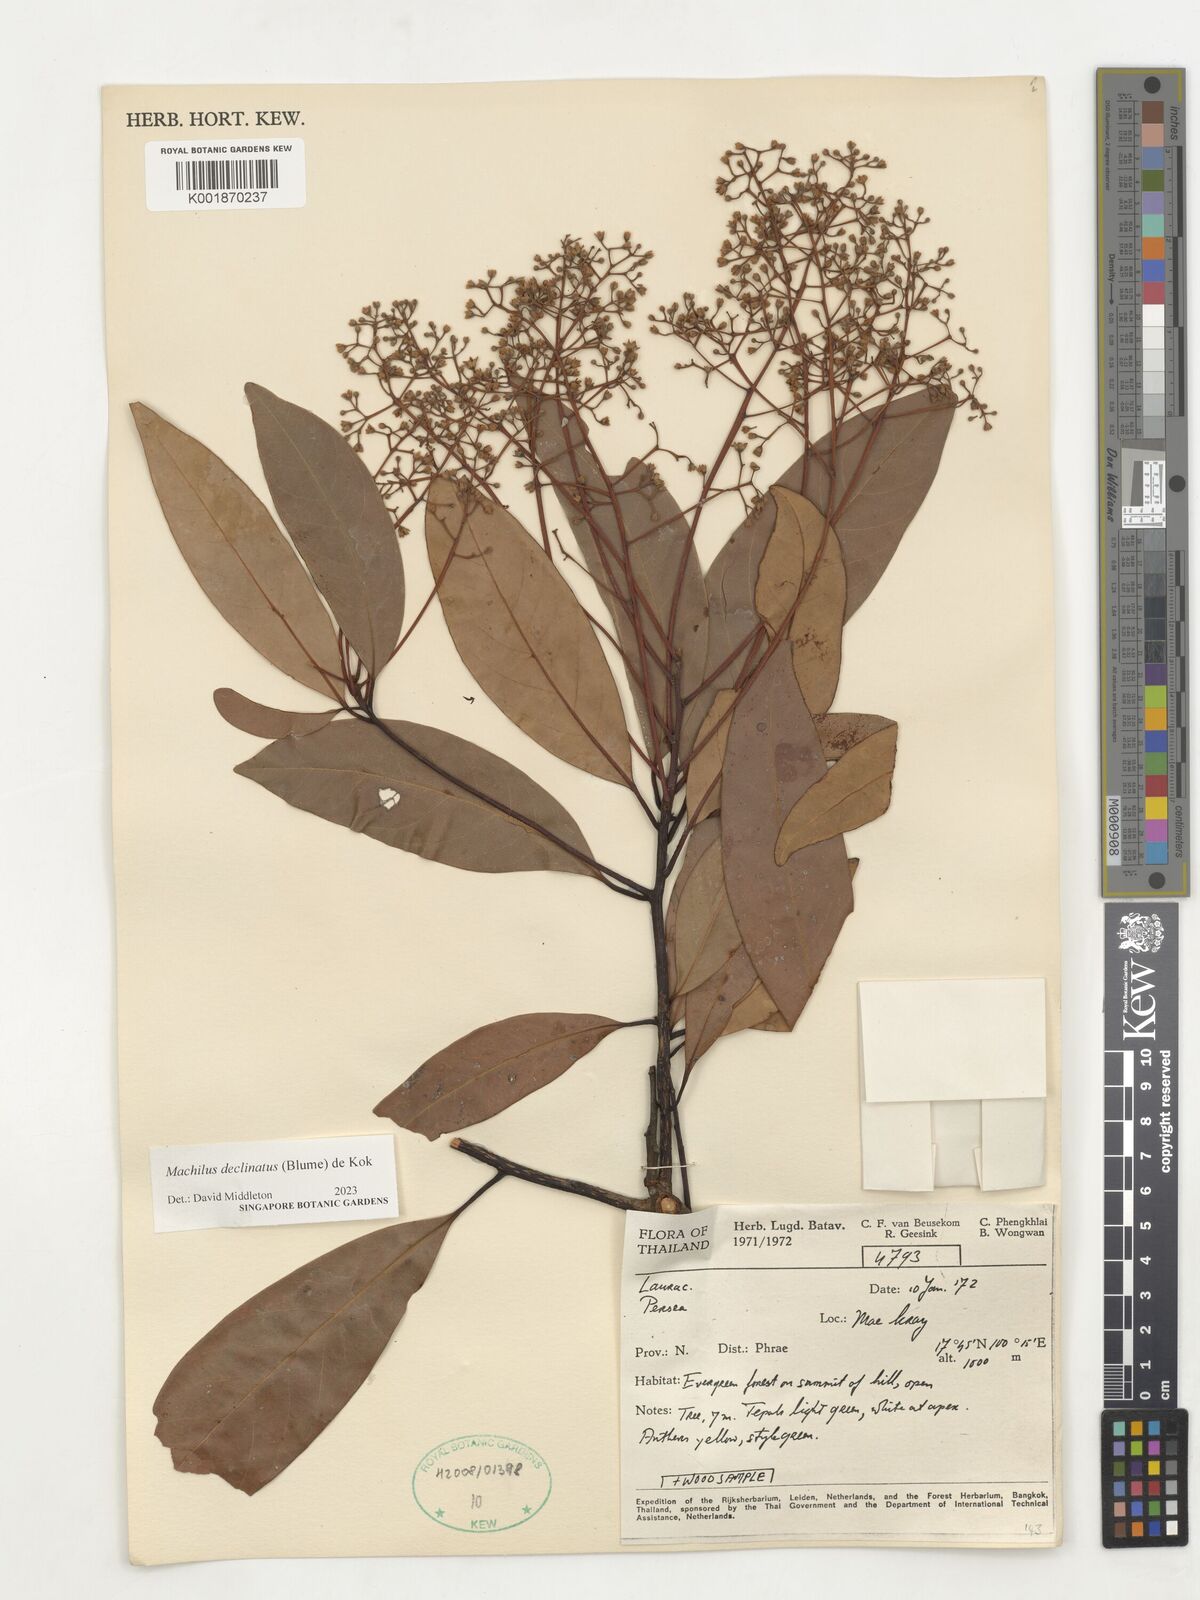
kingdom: Plantae
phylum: Tracheophyta
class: Magnoliopsida
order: Laurales
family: Lauraceae
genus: Machilus
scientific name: Machilus declinata
